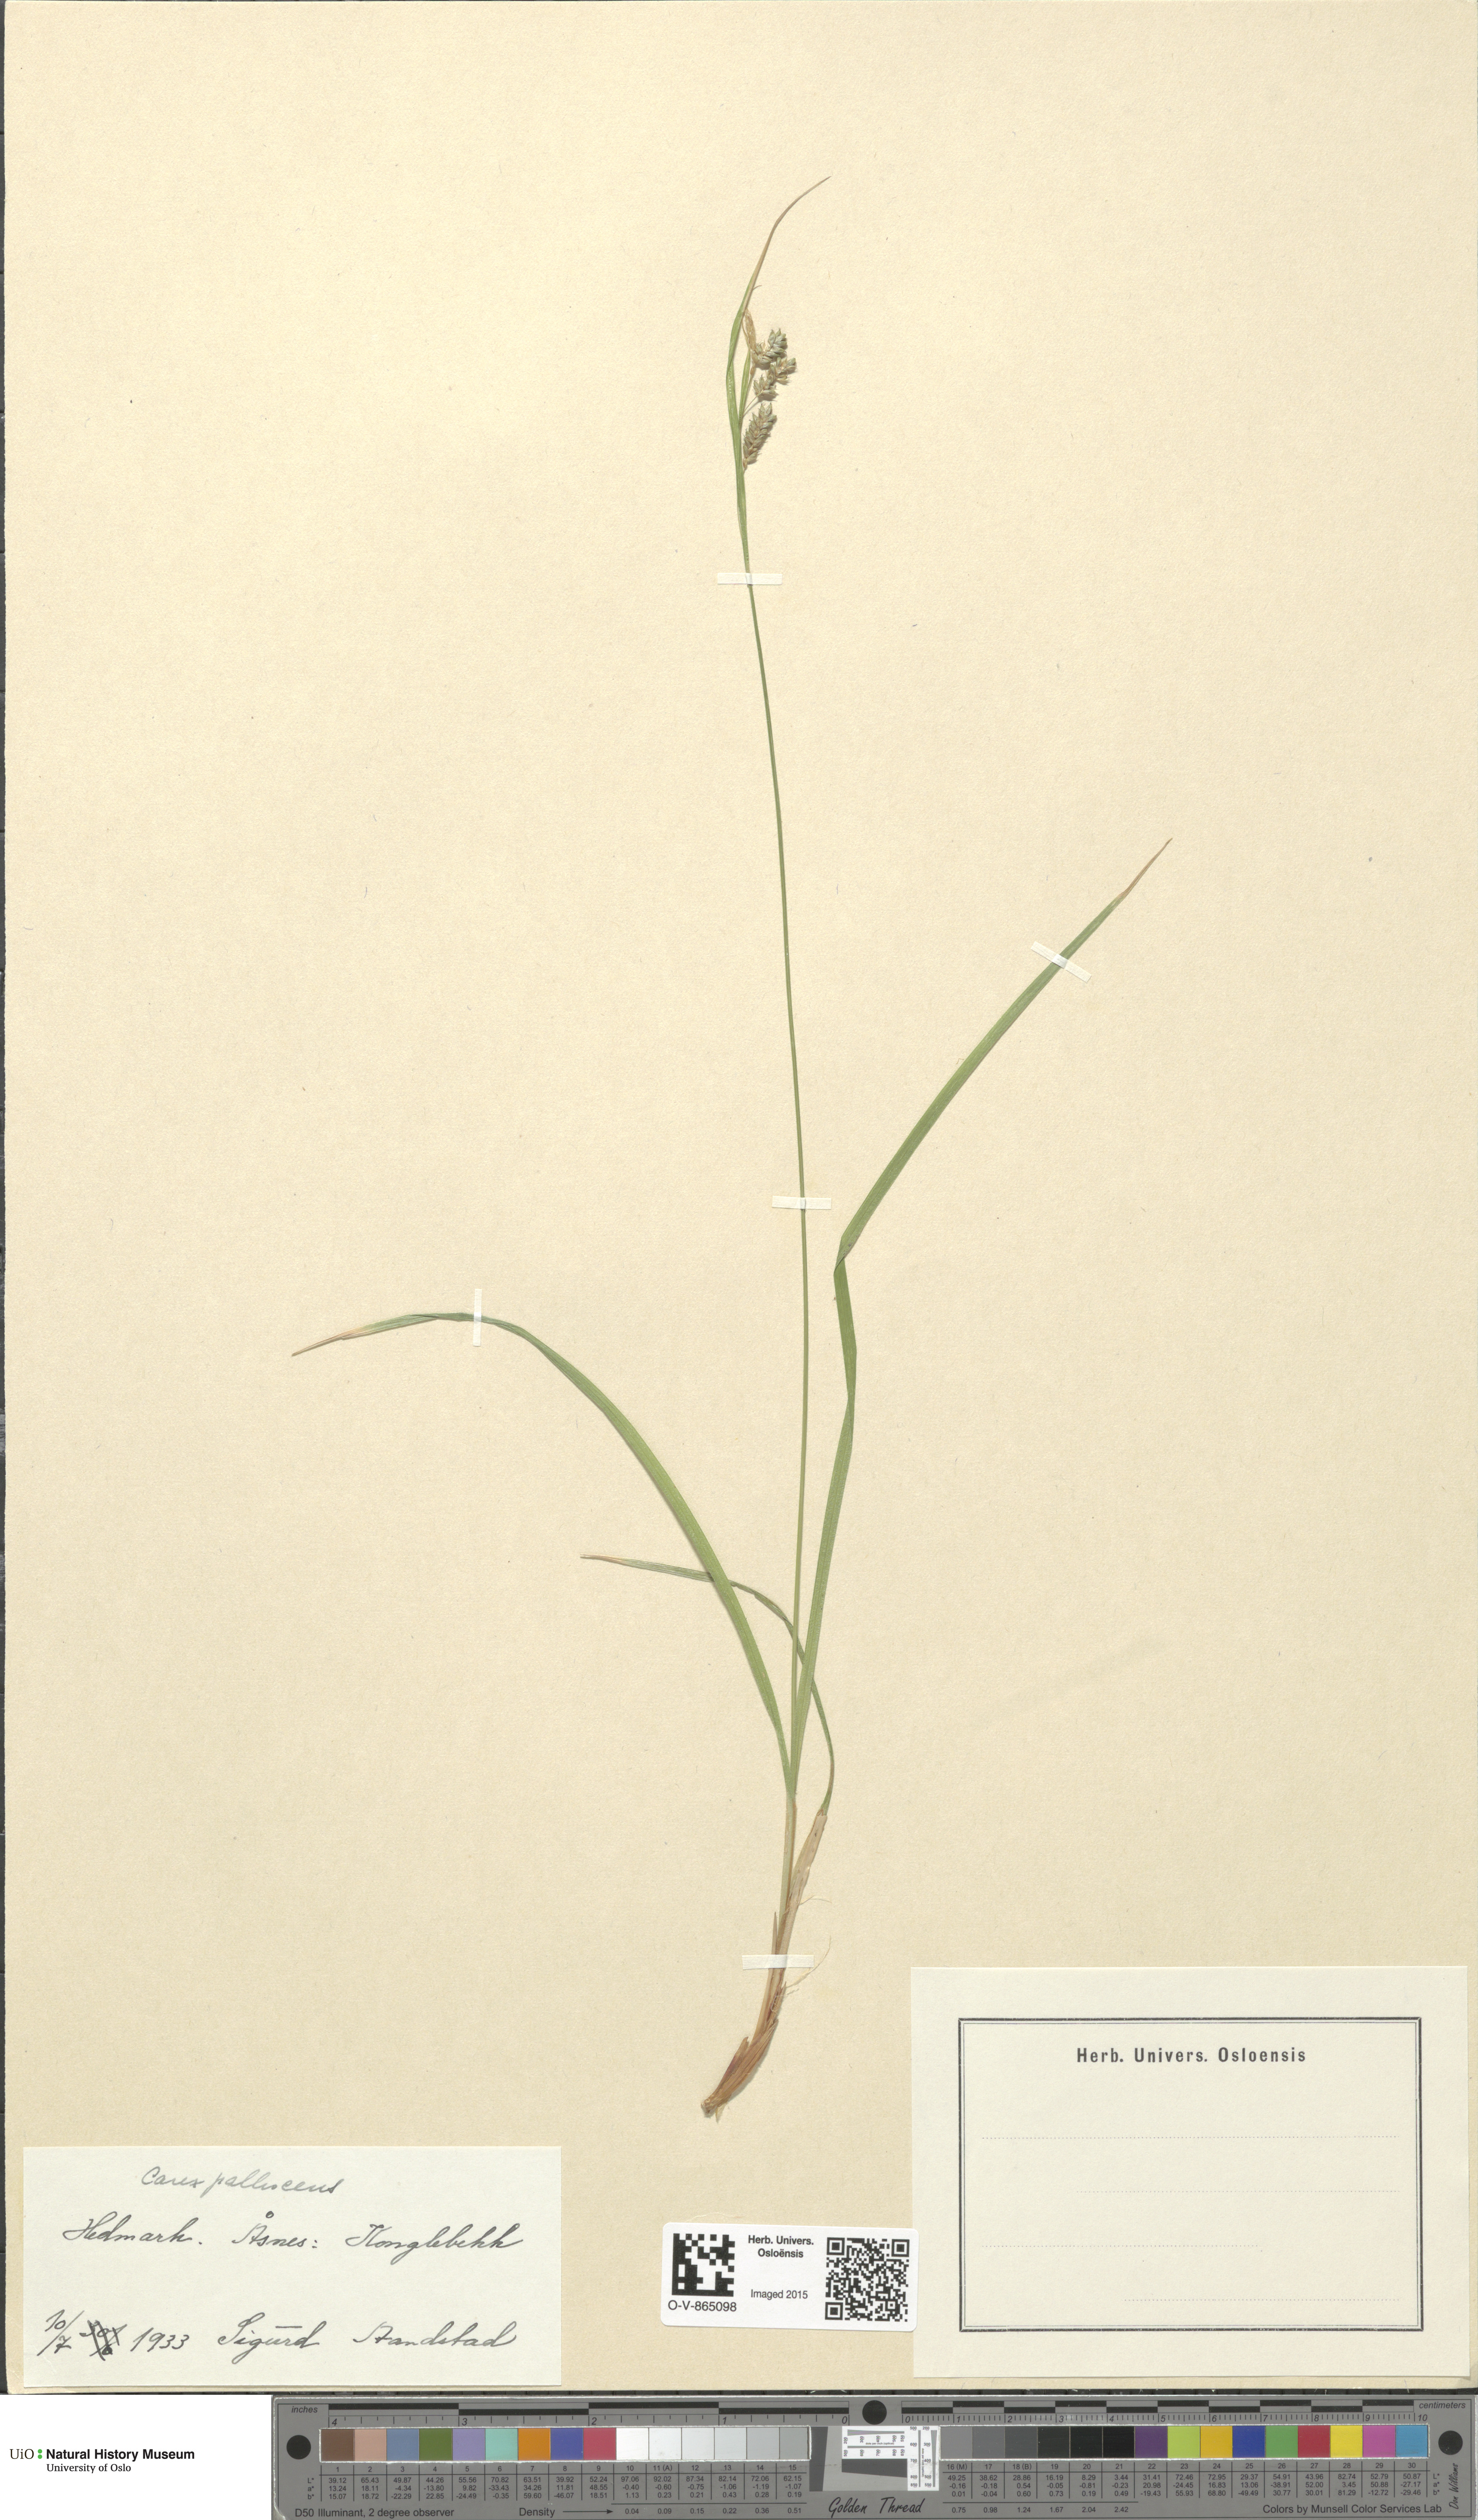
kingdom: Plantae
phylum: Tracheophyta
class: Liliopsida
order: Poales
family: Cyperaceae
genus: Carex
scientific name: Carex pallescens
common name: Pale sedge
